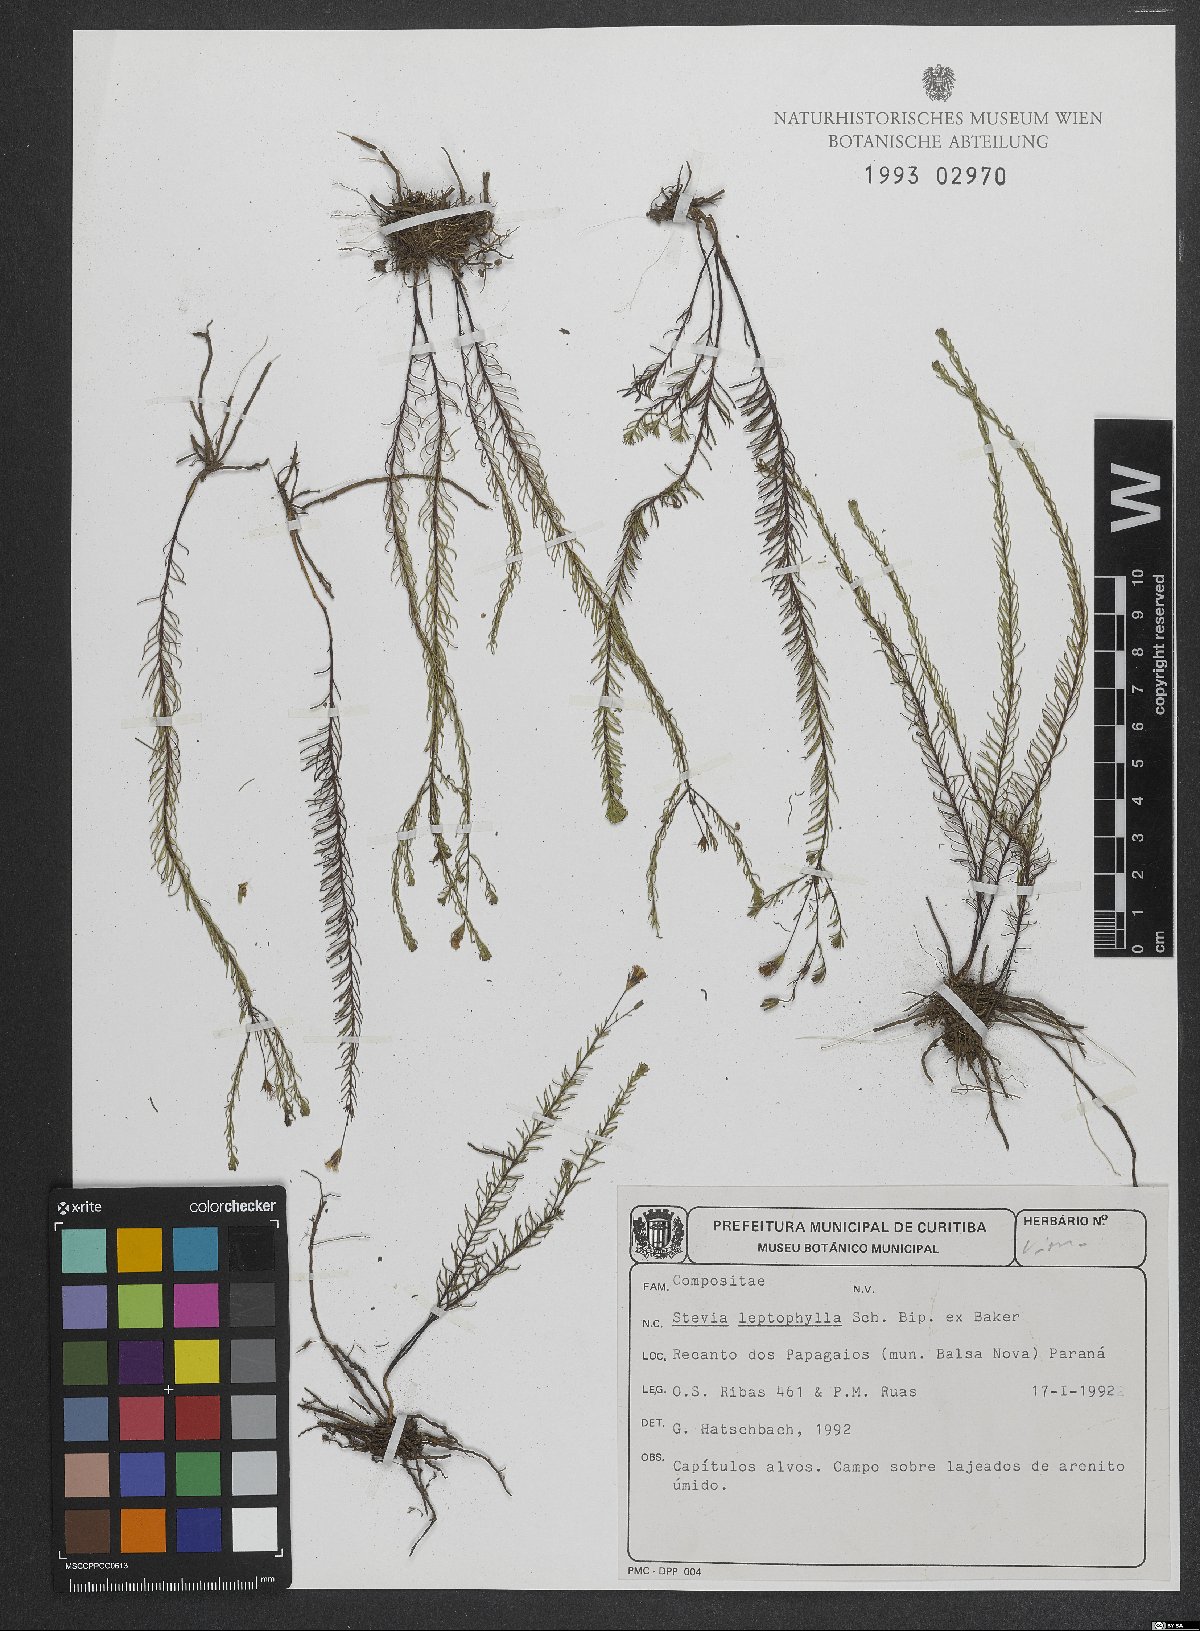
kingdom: Plantae
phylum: Tracheophyta
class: Magnoliopsida
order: Asterales
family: Asteraceae
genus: Stevia
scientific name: Stevia leptophylla
